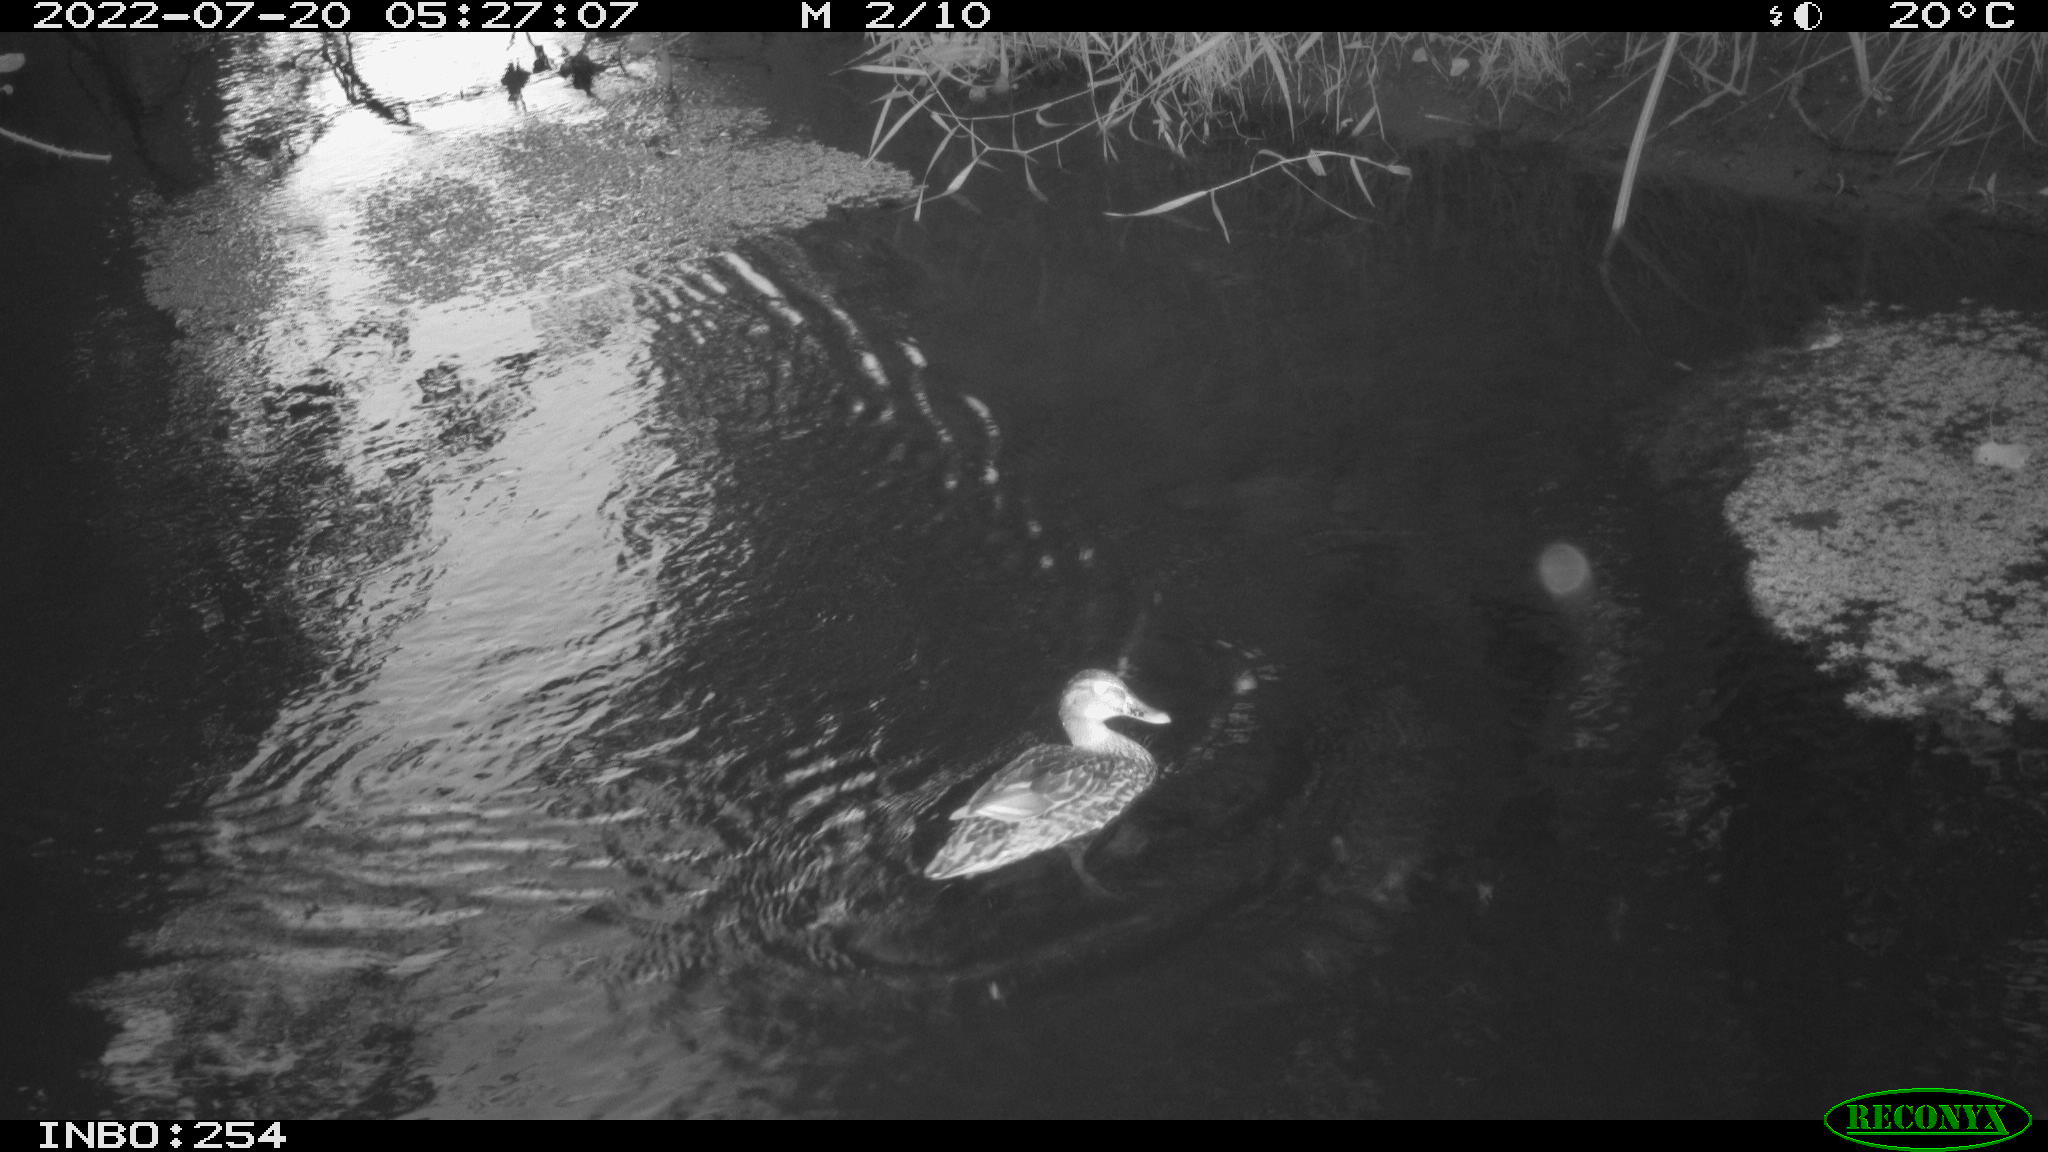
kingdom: Animalia
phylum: Chordata
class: Aves
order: Anseriformes
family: Anatidae
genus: Anas
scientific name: Anas platyrhynchos
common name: Mallard
